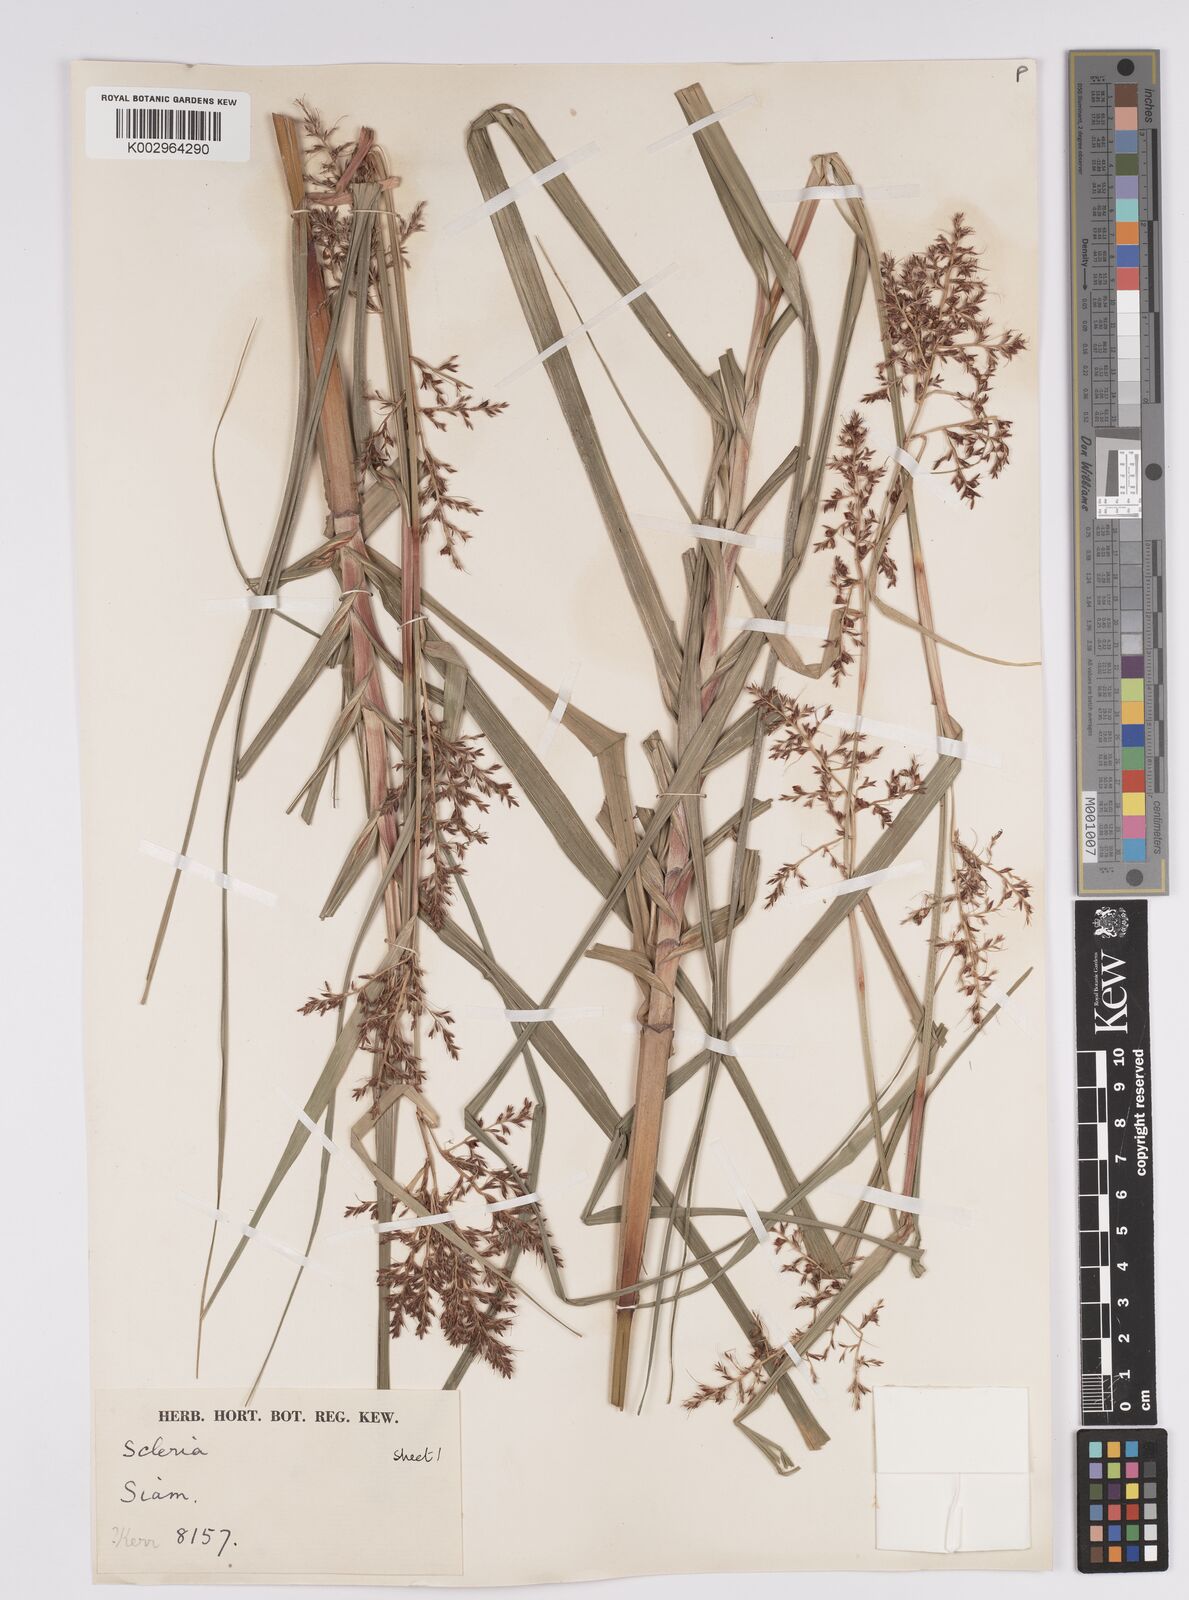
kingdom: Plantae
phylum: Tracheophyta
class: Liliopsida
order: Poales
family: Cyperaceae
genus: Scleria
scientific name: Scleria
